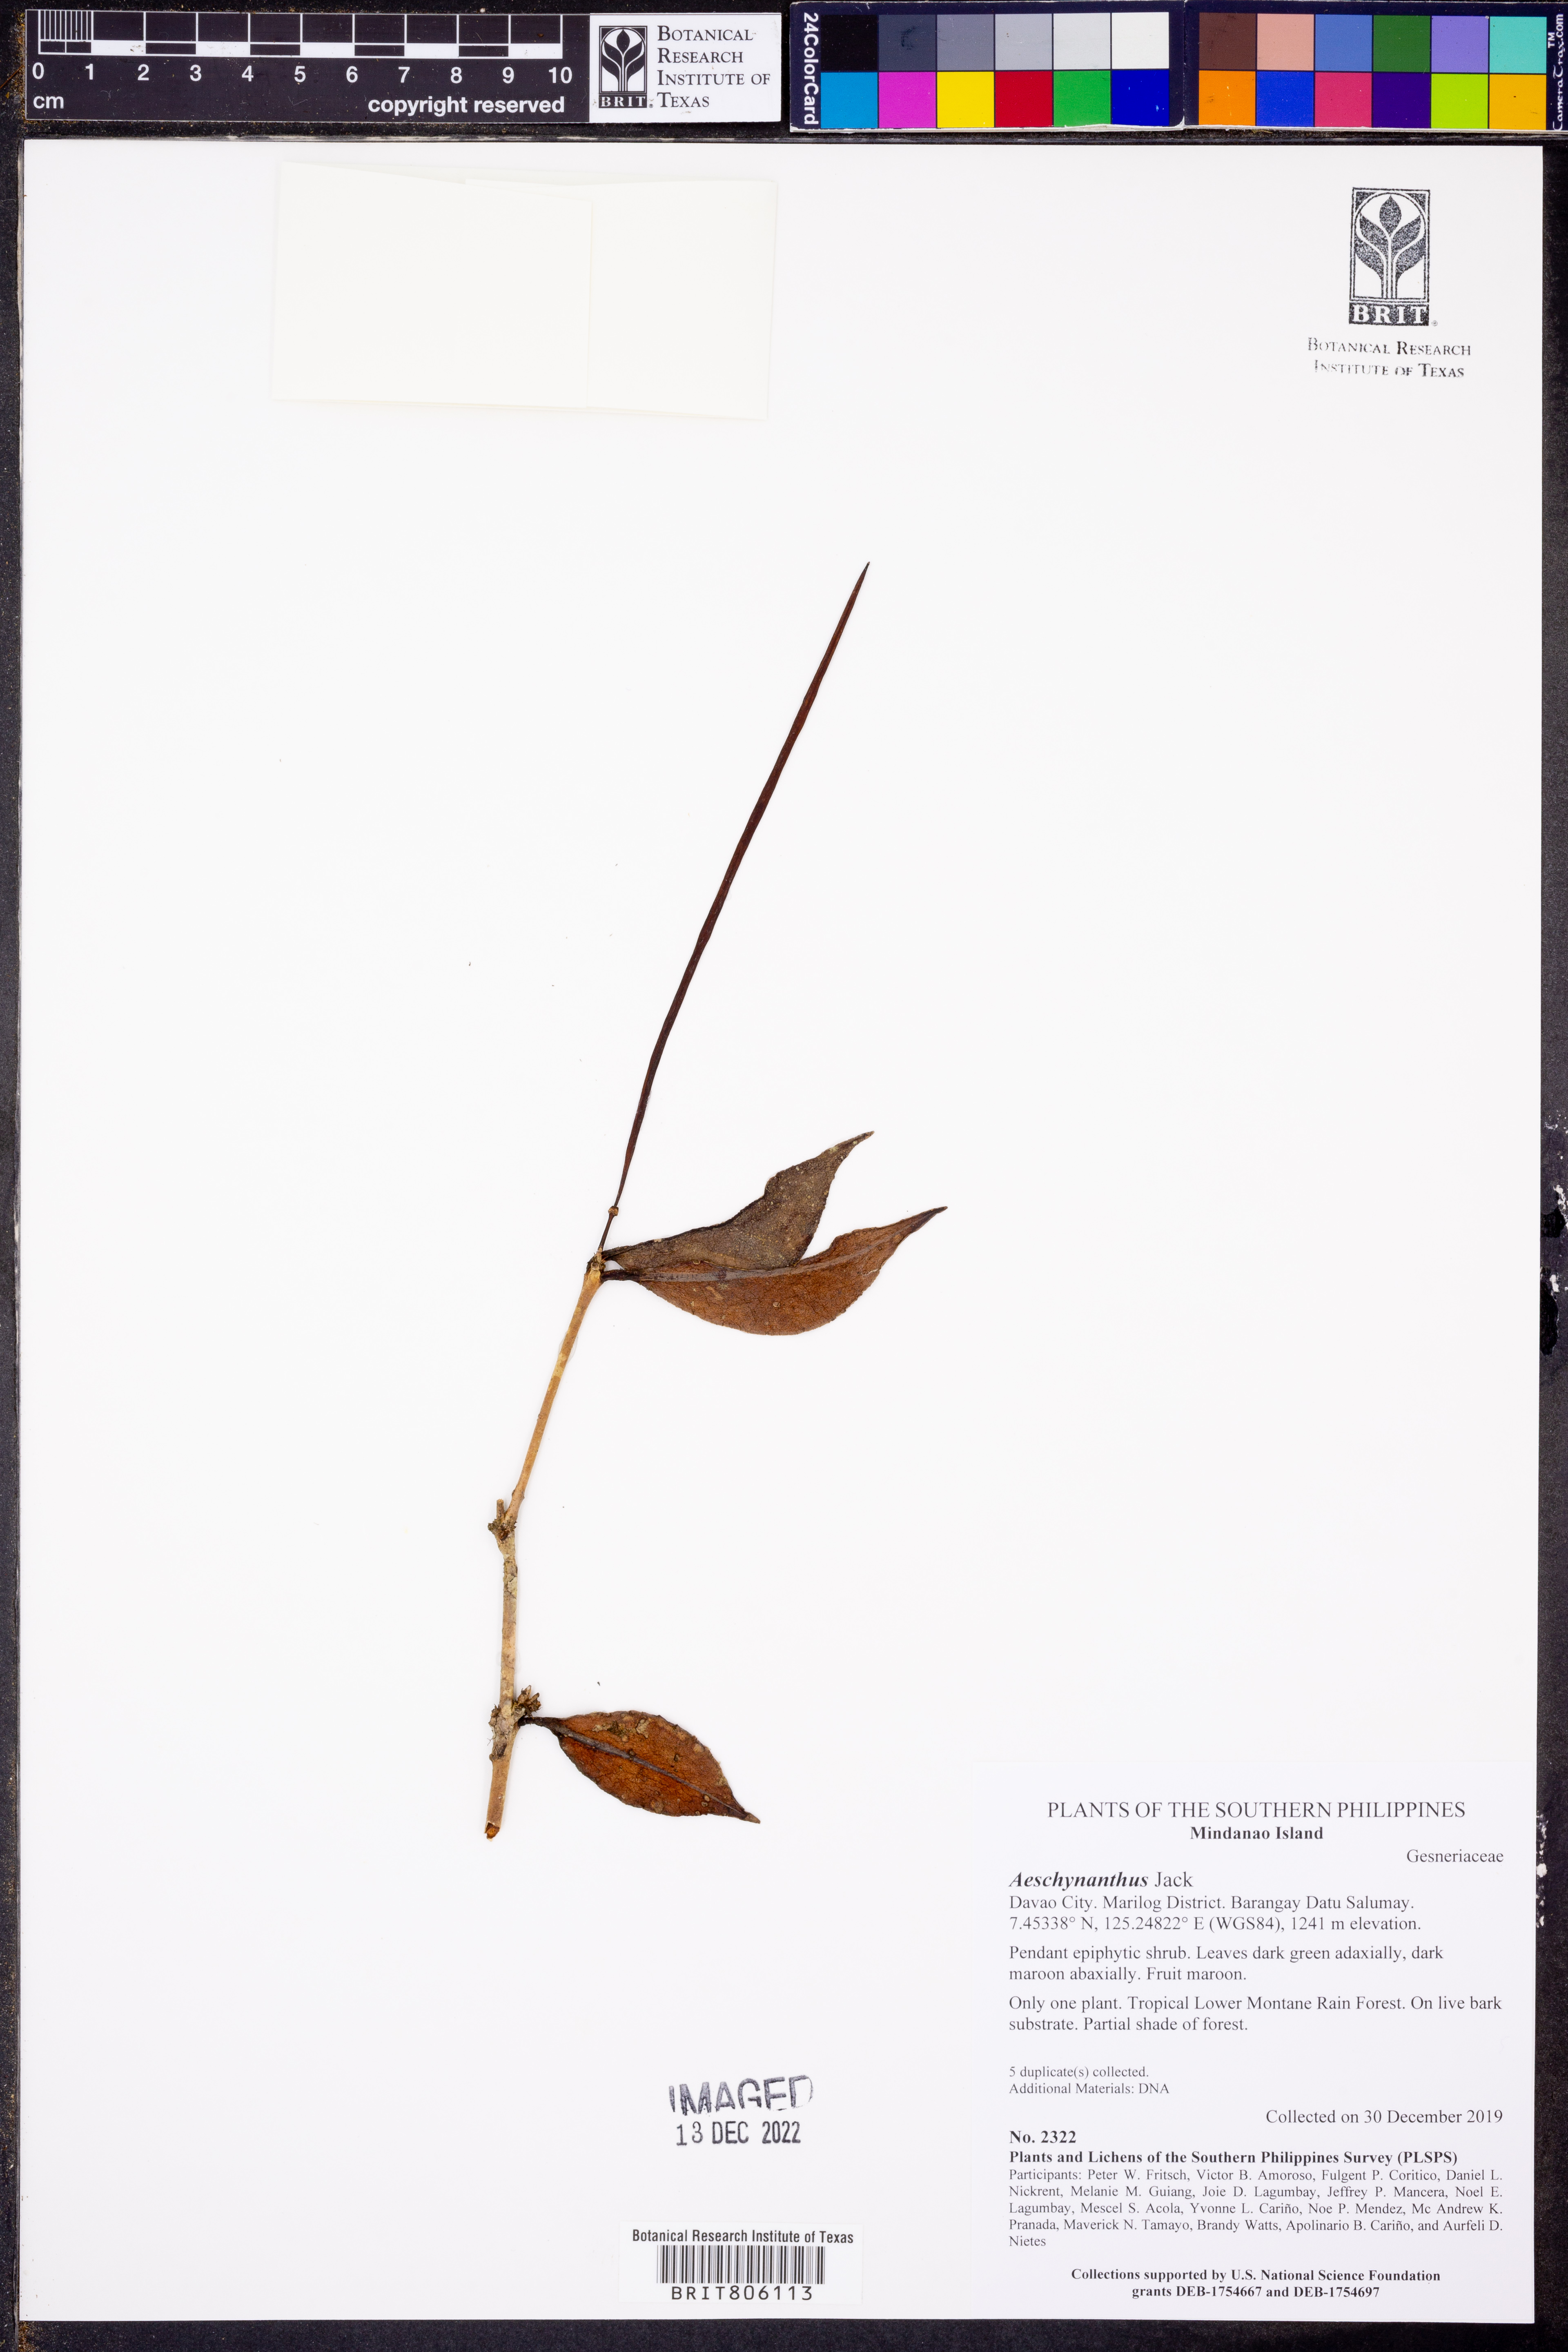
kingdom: Plantae
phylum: Tracheophyta
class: Magnoliopsida
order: Lamiales
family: Gesneriaceae
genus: Aeschynanthus
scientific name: Aeschynanthus
